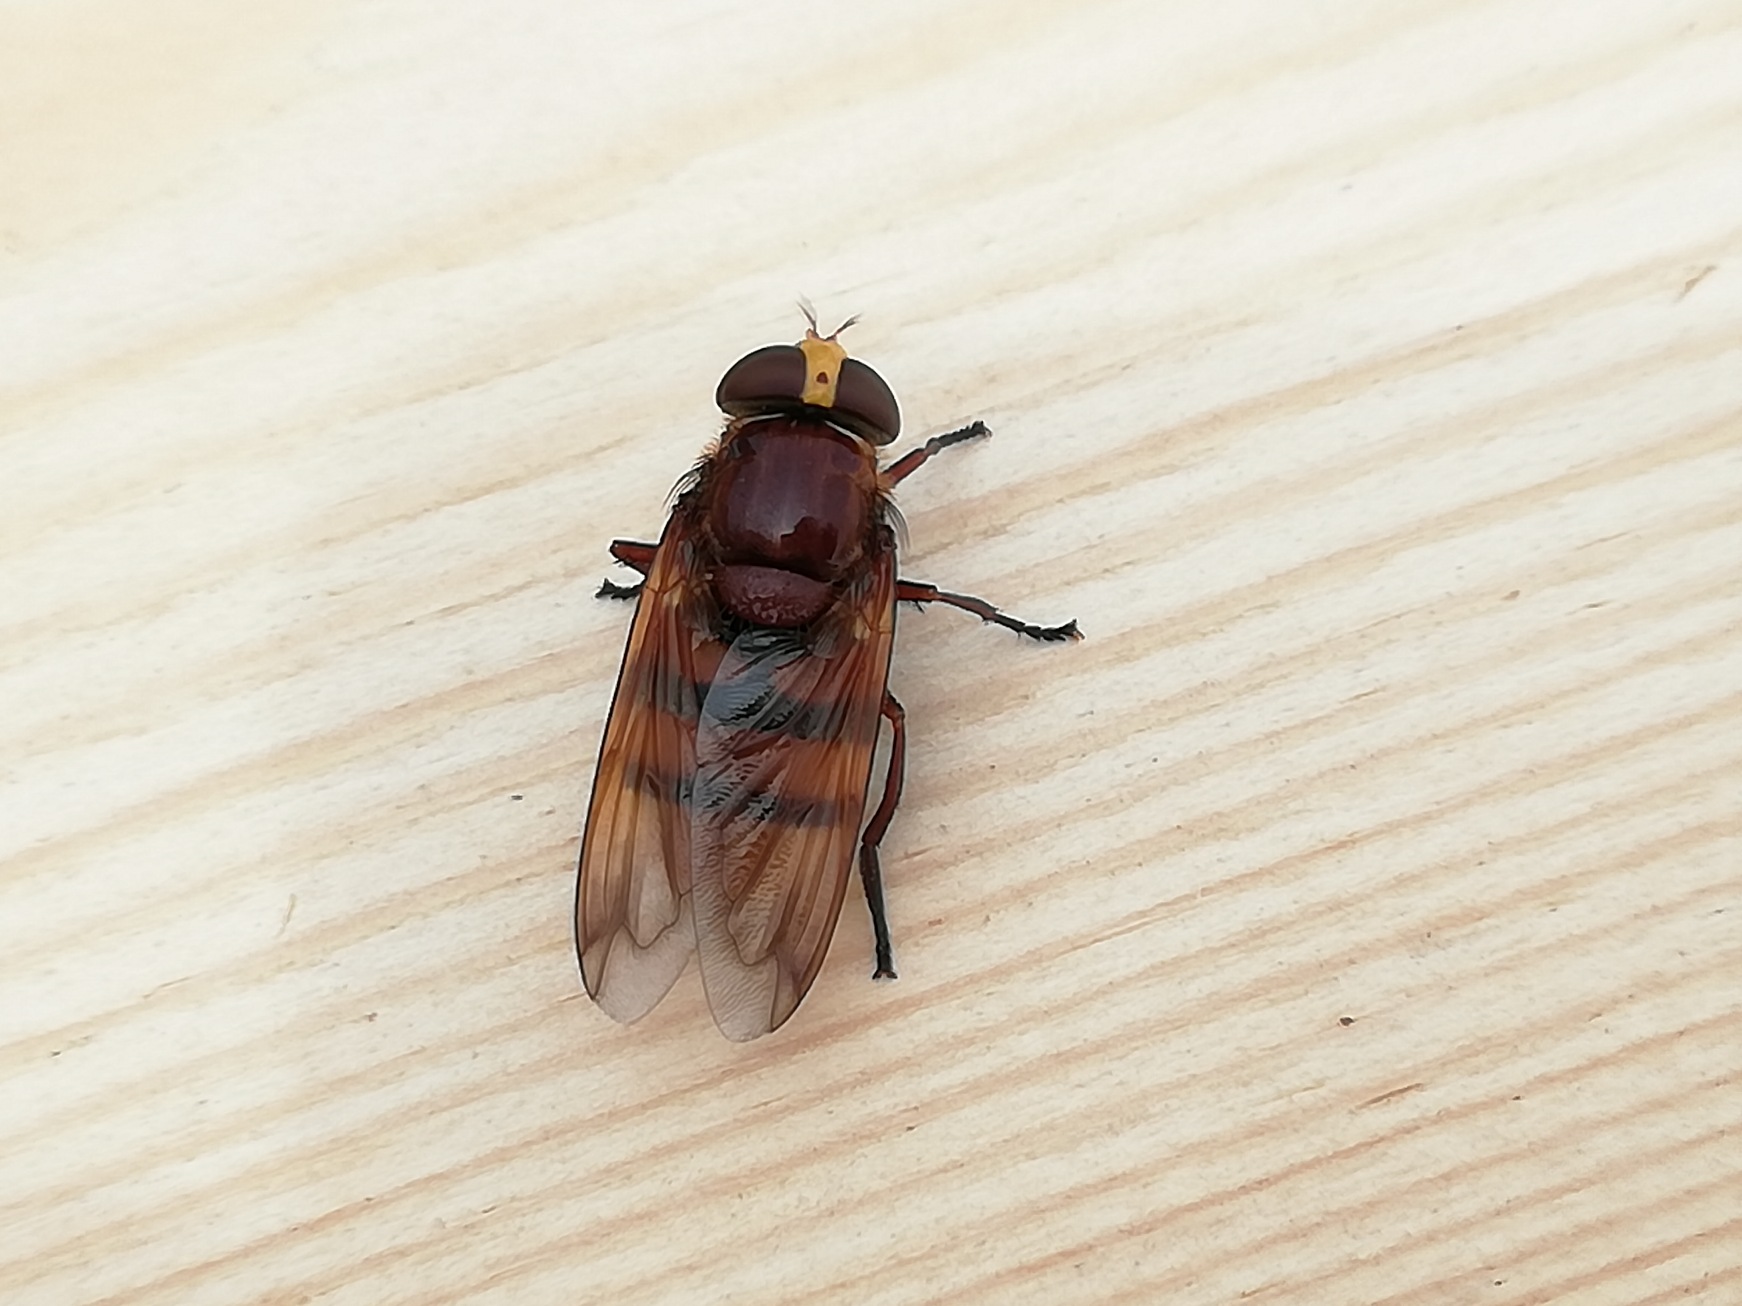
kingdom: Animalia
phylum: Arthropoda
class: Insecta
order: Diptera
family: Syrphidae
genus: Volucella
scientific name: Volucella zonaria
